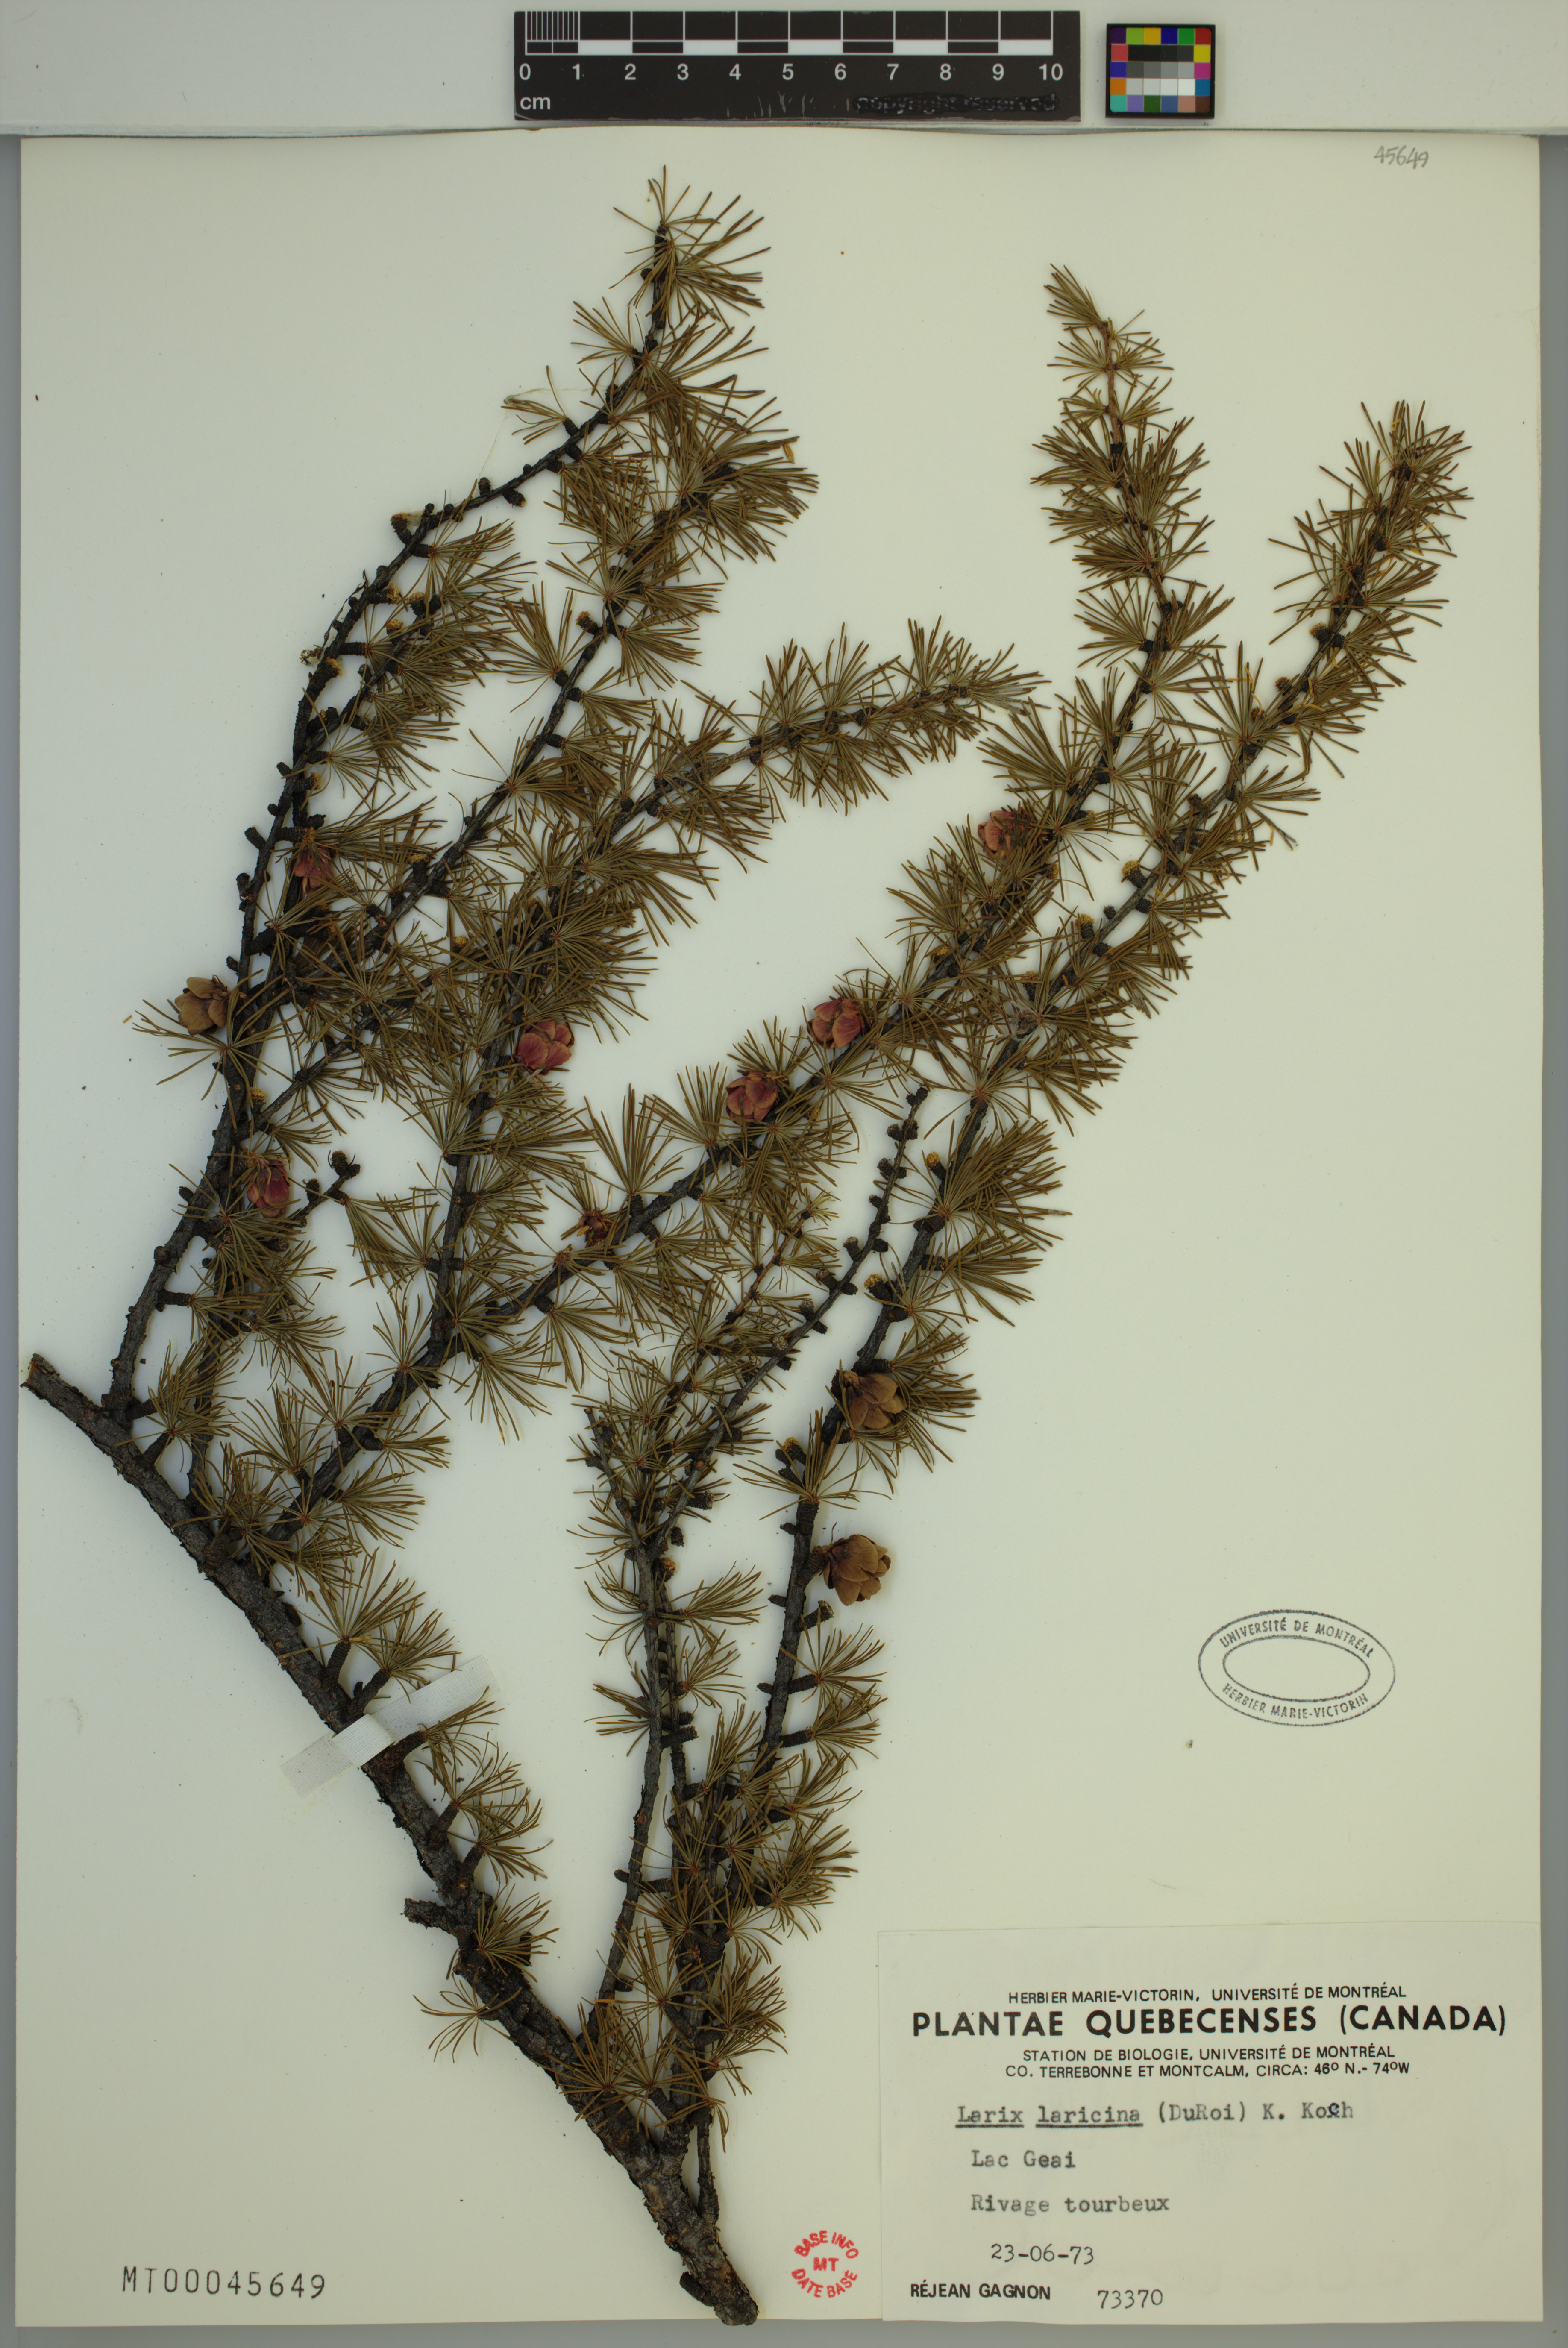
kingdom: Plantae
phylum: Tracheophyta
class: Pinopsida
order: Pinales
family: Pinaceae
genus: Larix
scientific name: Larix laricina
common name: American larch
